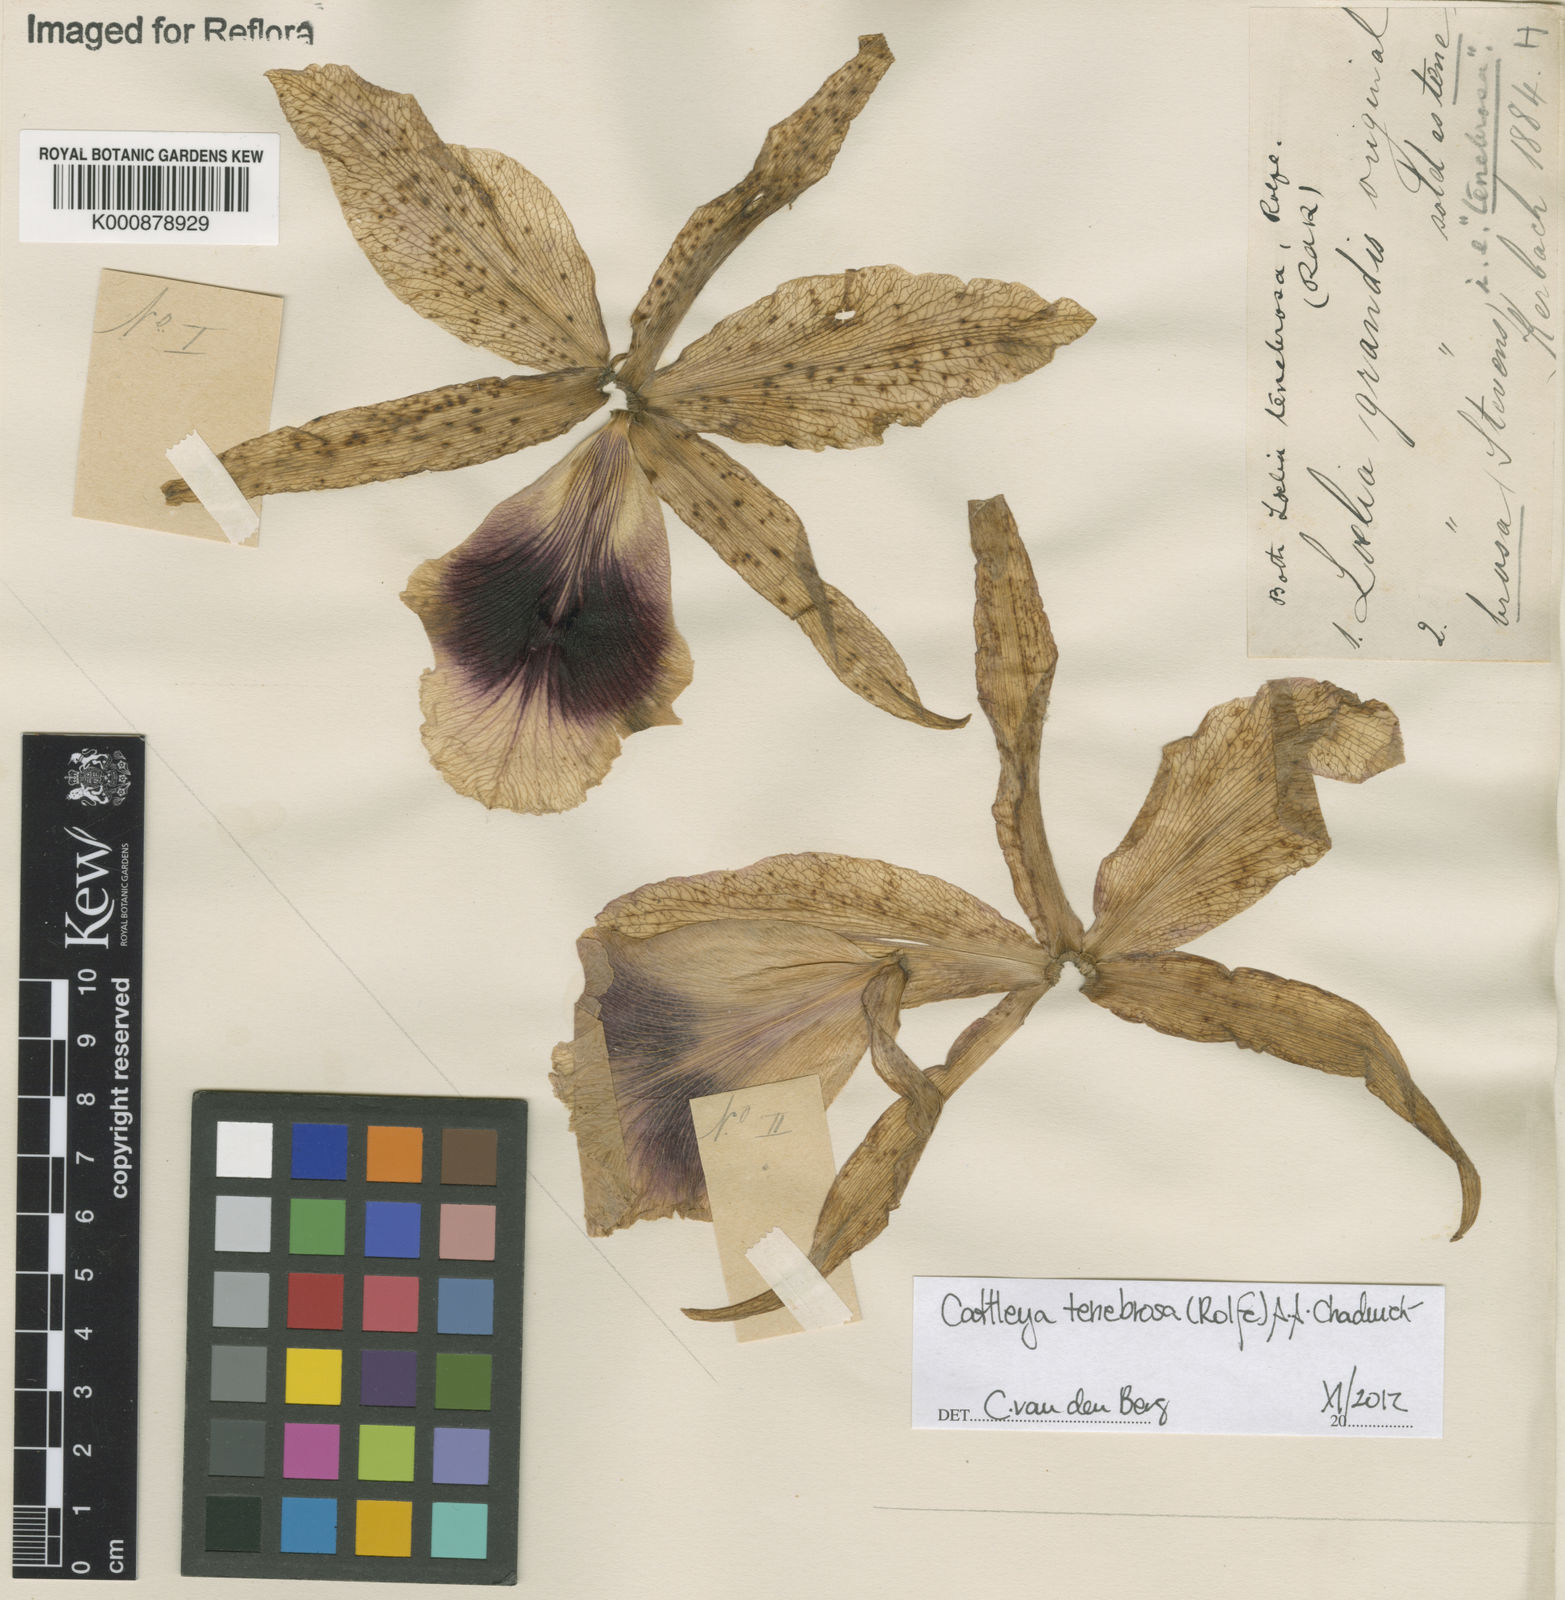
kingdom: Plantae
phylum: Tracheophyta
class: Liliopsida
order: Asparagales
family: Orchidaceae
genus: Cattleya
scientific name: Cattleya tenebrosa
